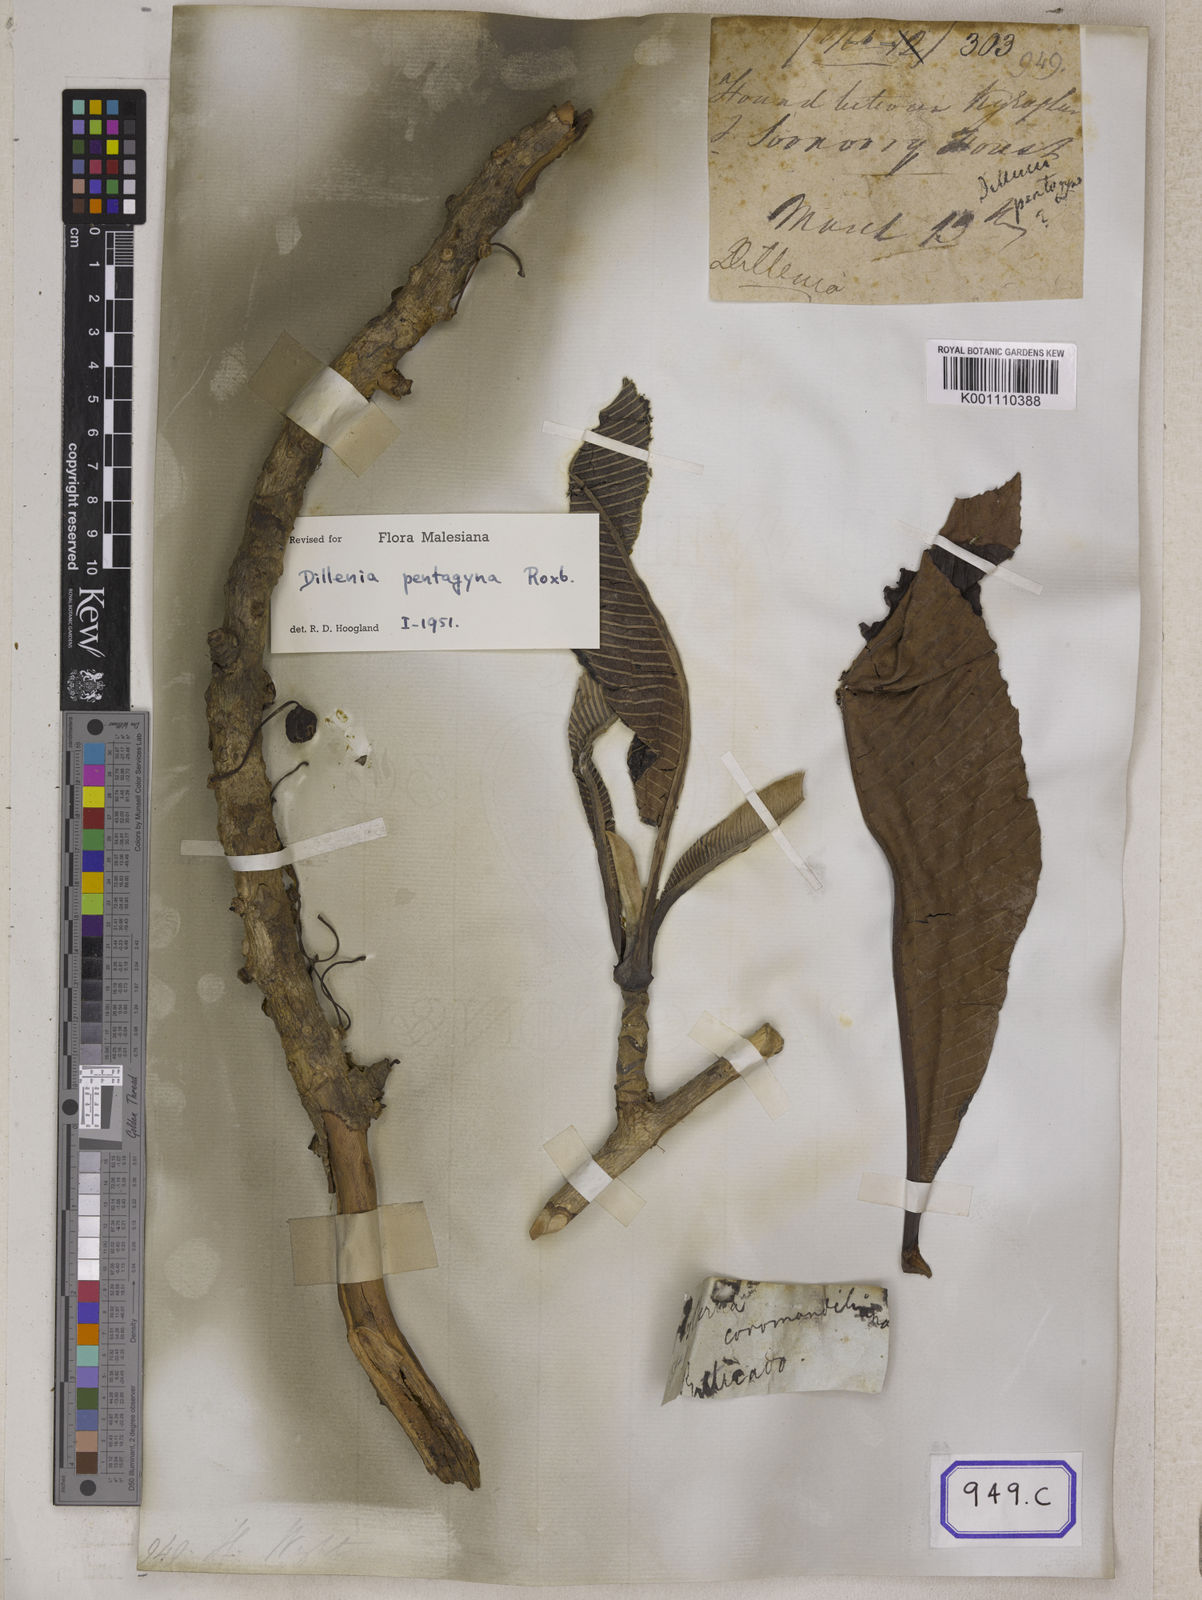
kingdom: Plantae
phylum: Tracheophyta
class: Magnoliopsida
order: Dilleniales
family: Dilleniaceae
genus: Dillenia
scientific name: Dillenia pentagyna
